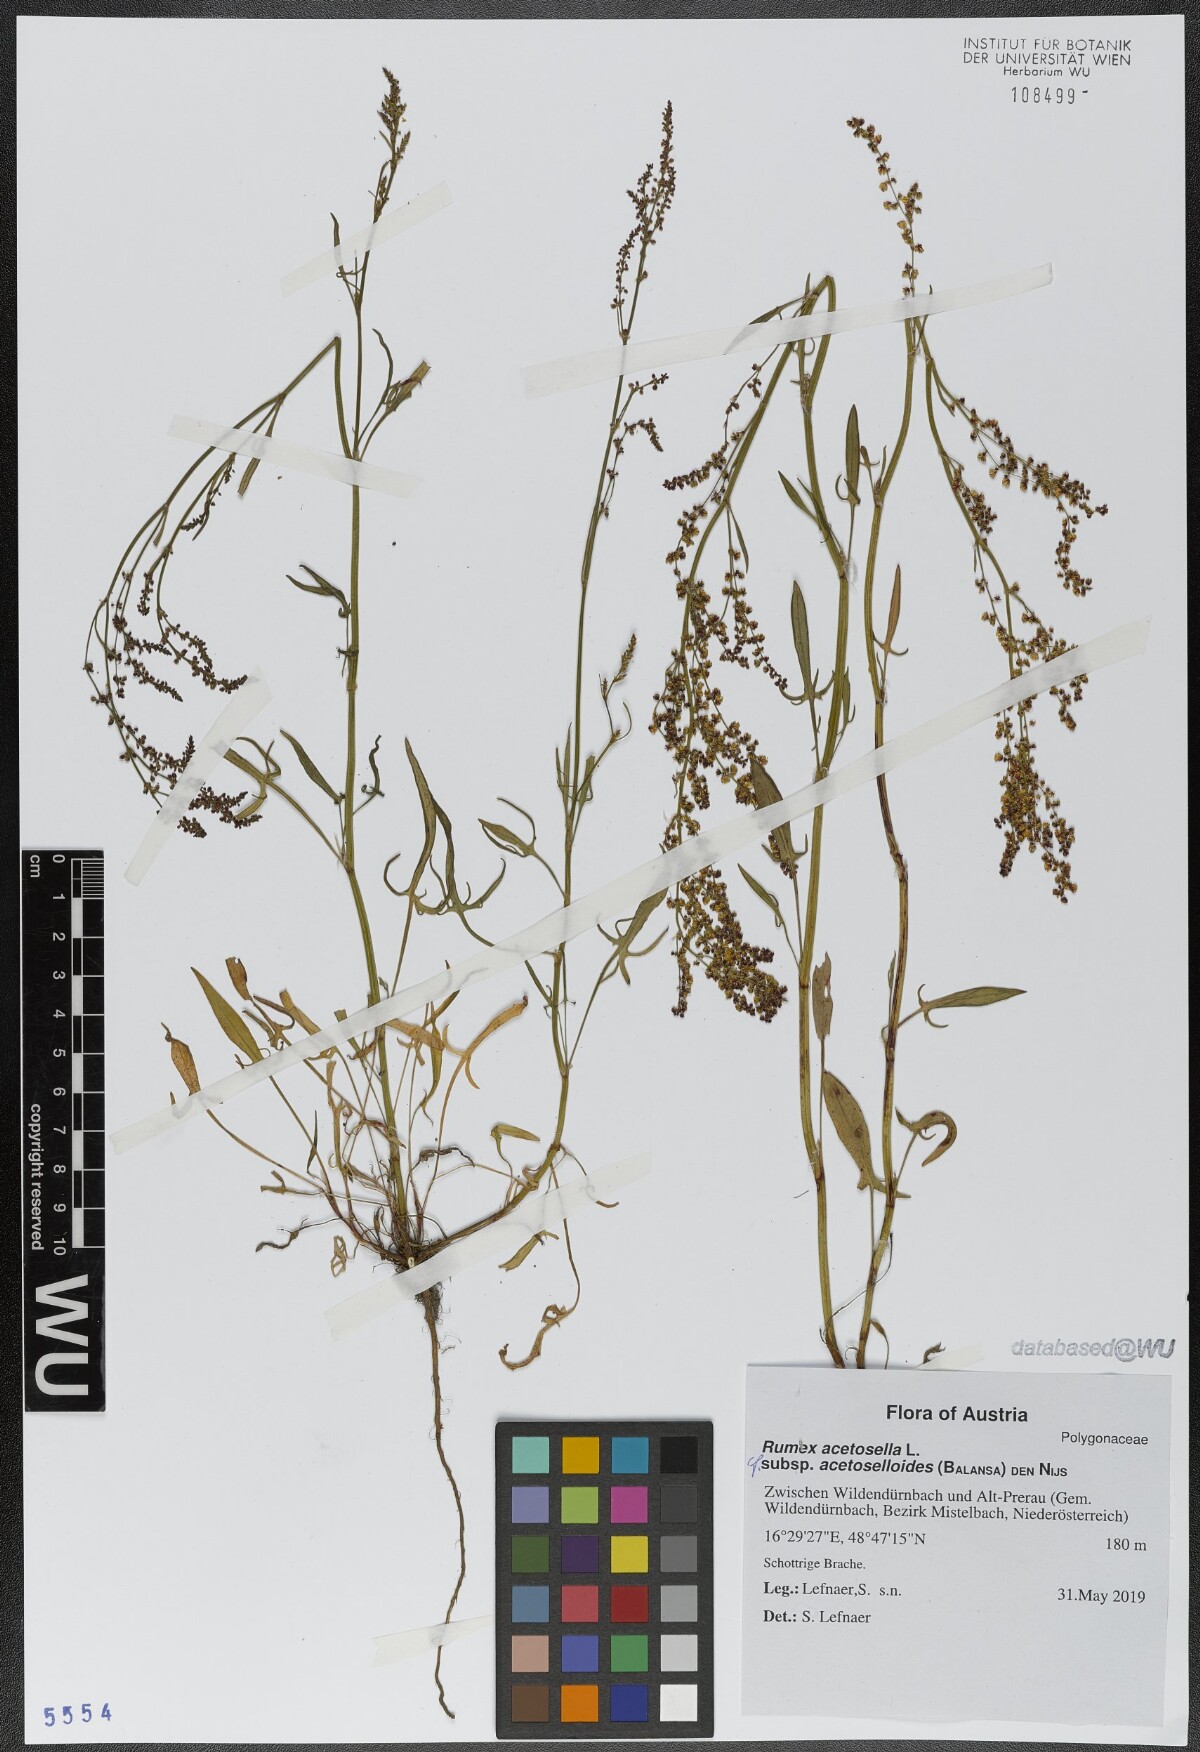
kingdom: Plantae
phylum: Tracheophyta
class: Magnoliopsida
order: Caryophyllales
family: Polygonaceae
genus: Rumex
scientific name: Rumex acetosella
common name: Common sheep sorrel
